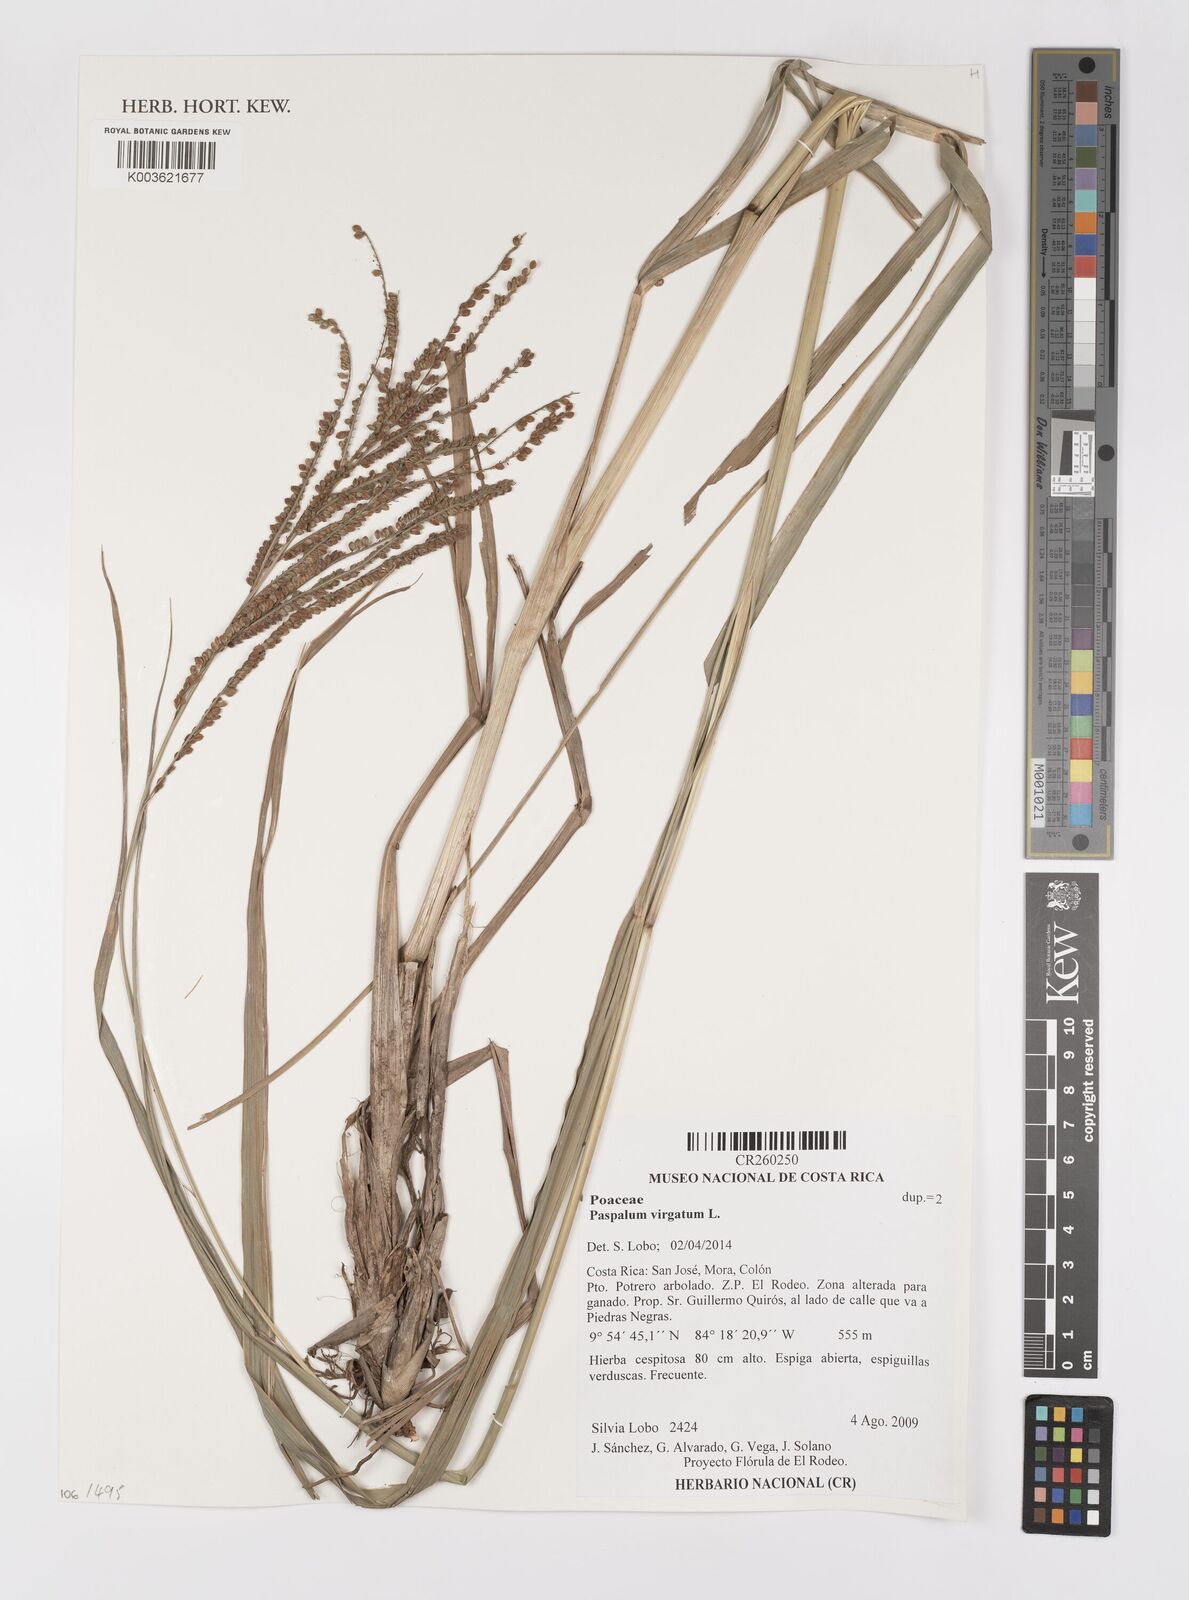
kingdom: Plantae
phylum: Tracheophyta
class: Liliopsida
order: Poales
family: Poaceae
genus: Paspalum
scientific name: Paspalum virgatum
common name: Talquezal
